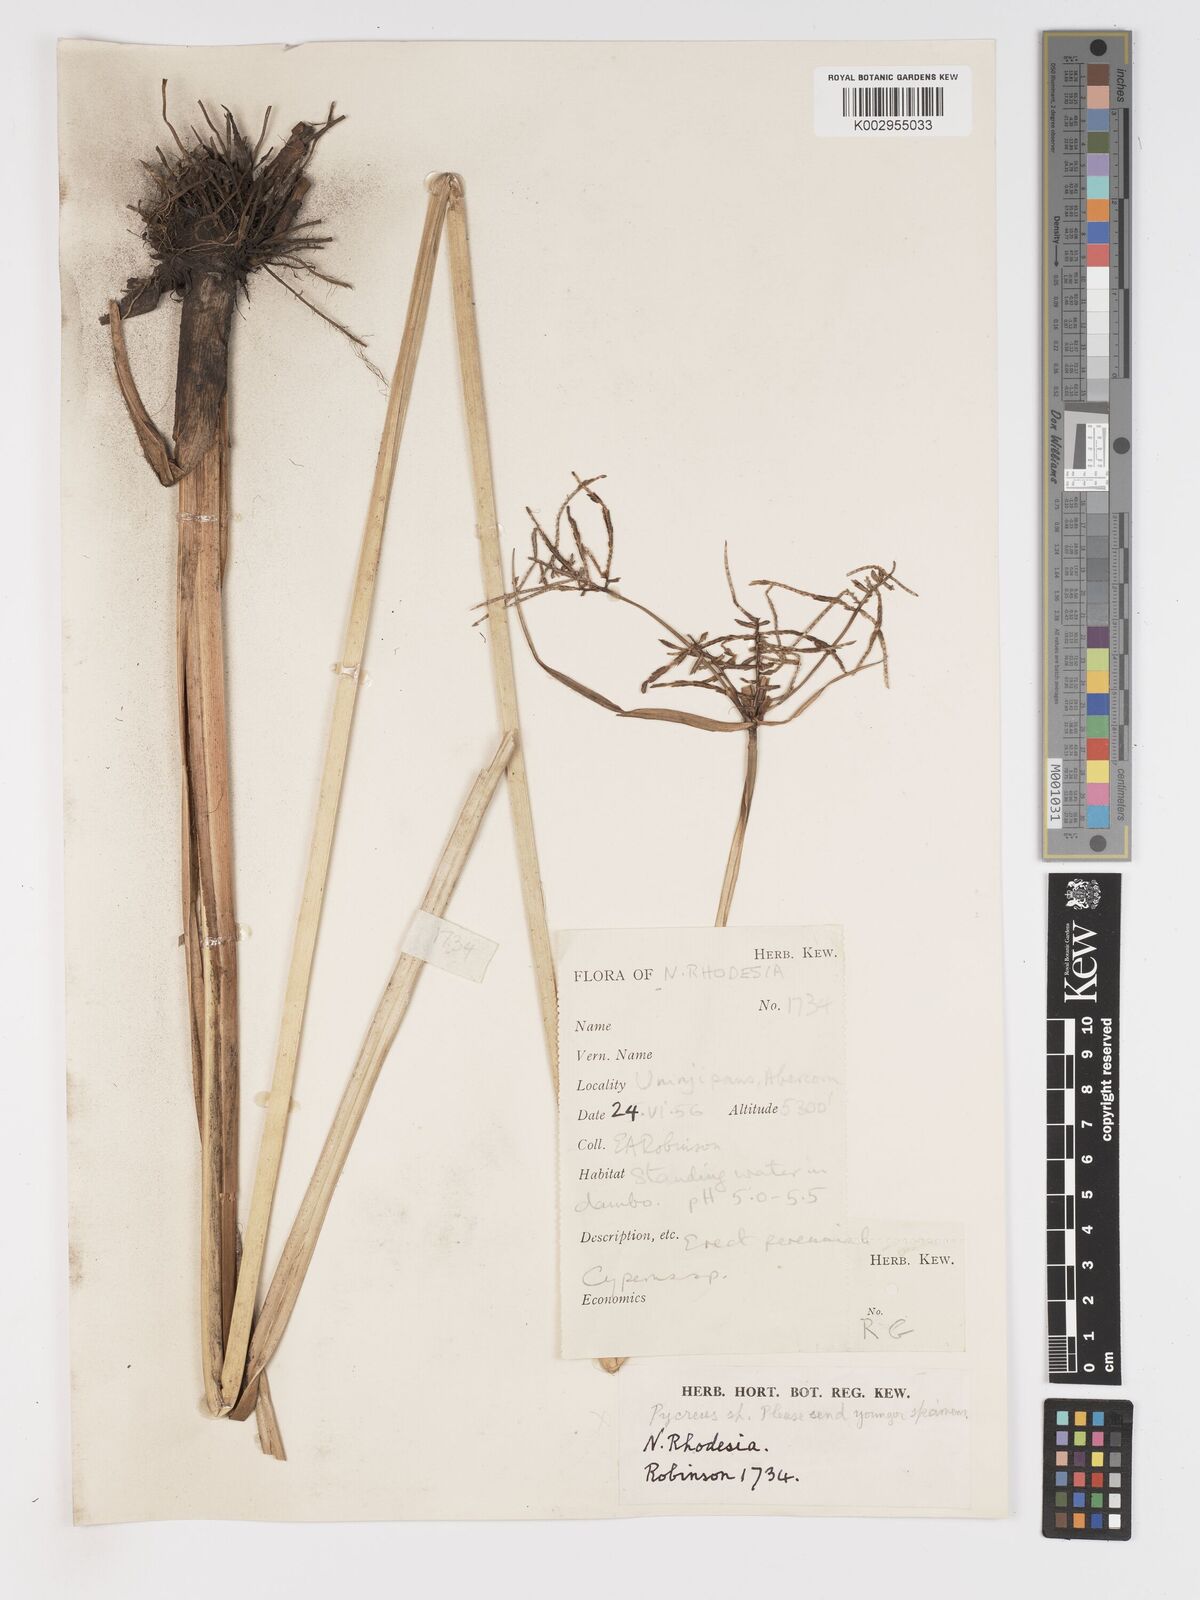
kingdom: Plantae
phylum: Tracheophyta
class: Liliopsida
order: Poales
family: Cyperaceae
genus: Cyperus
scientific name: Cyperus haspan
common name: Haspan flatsedge
